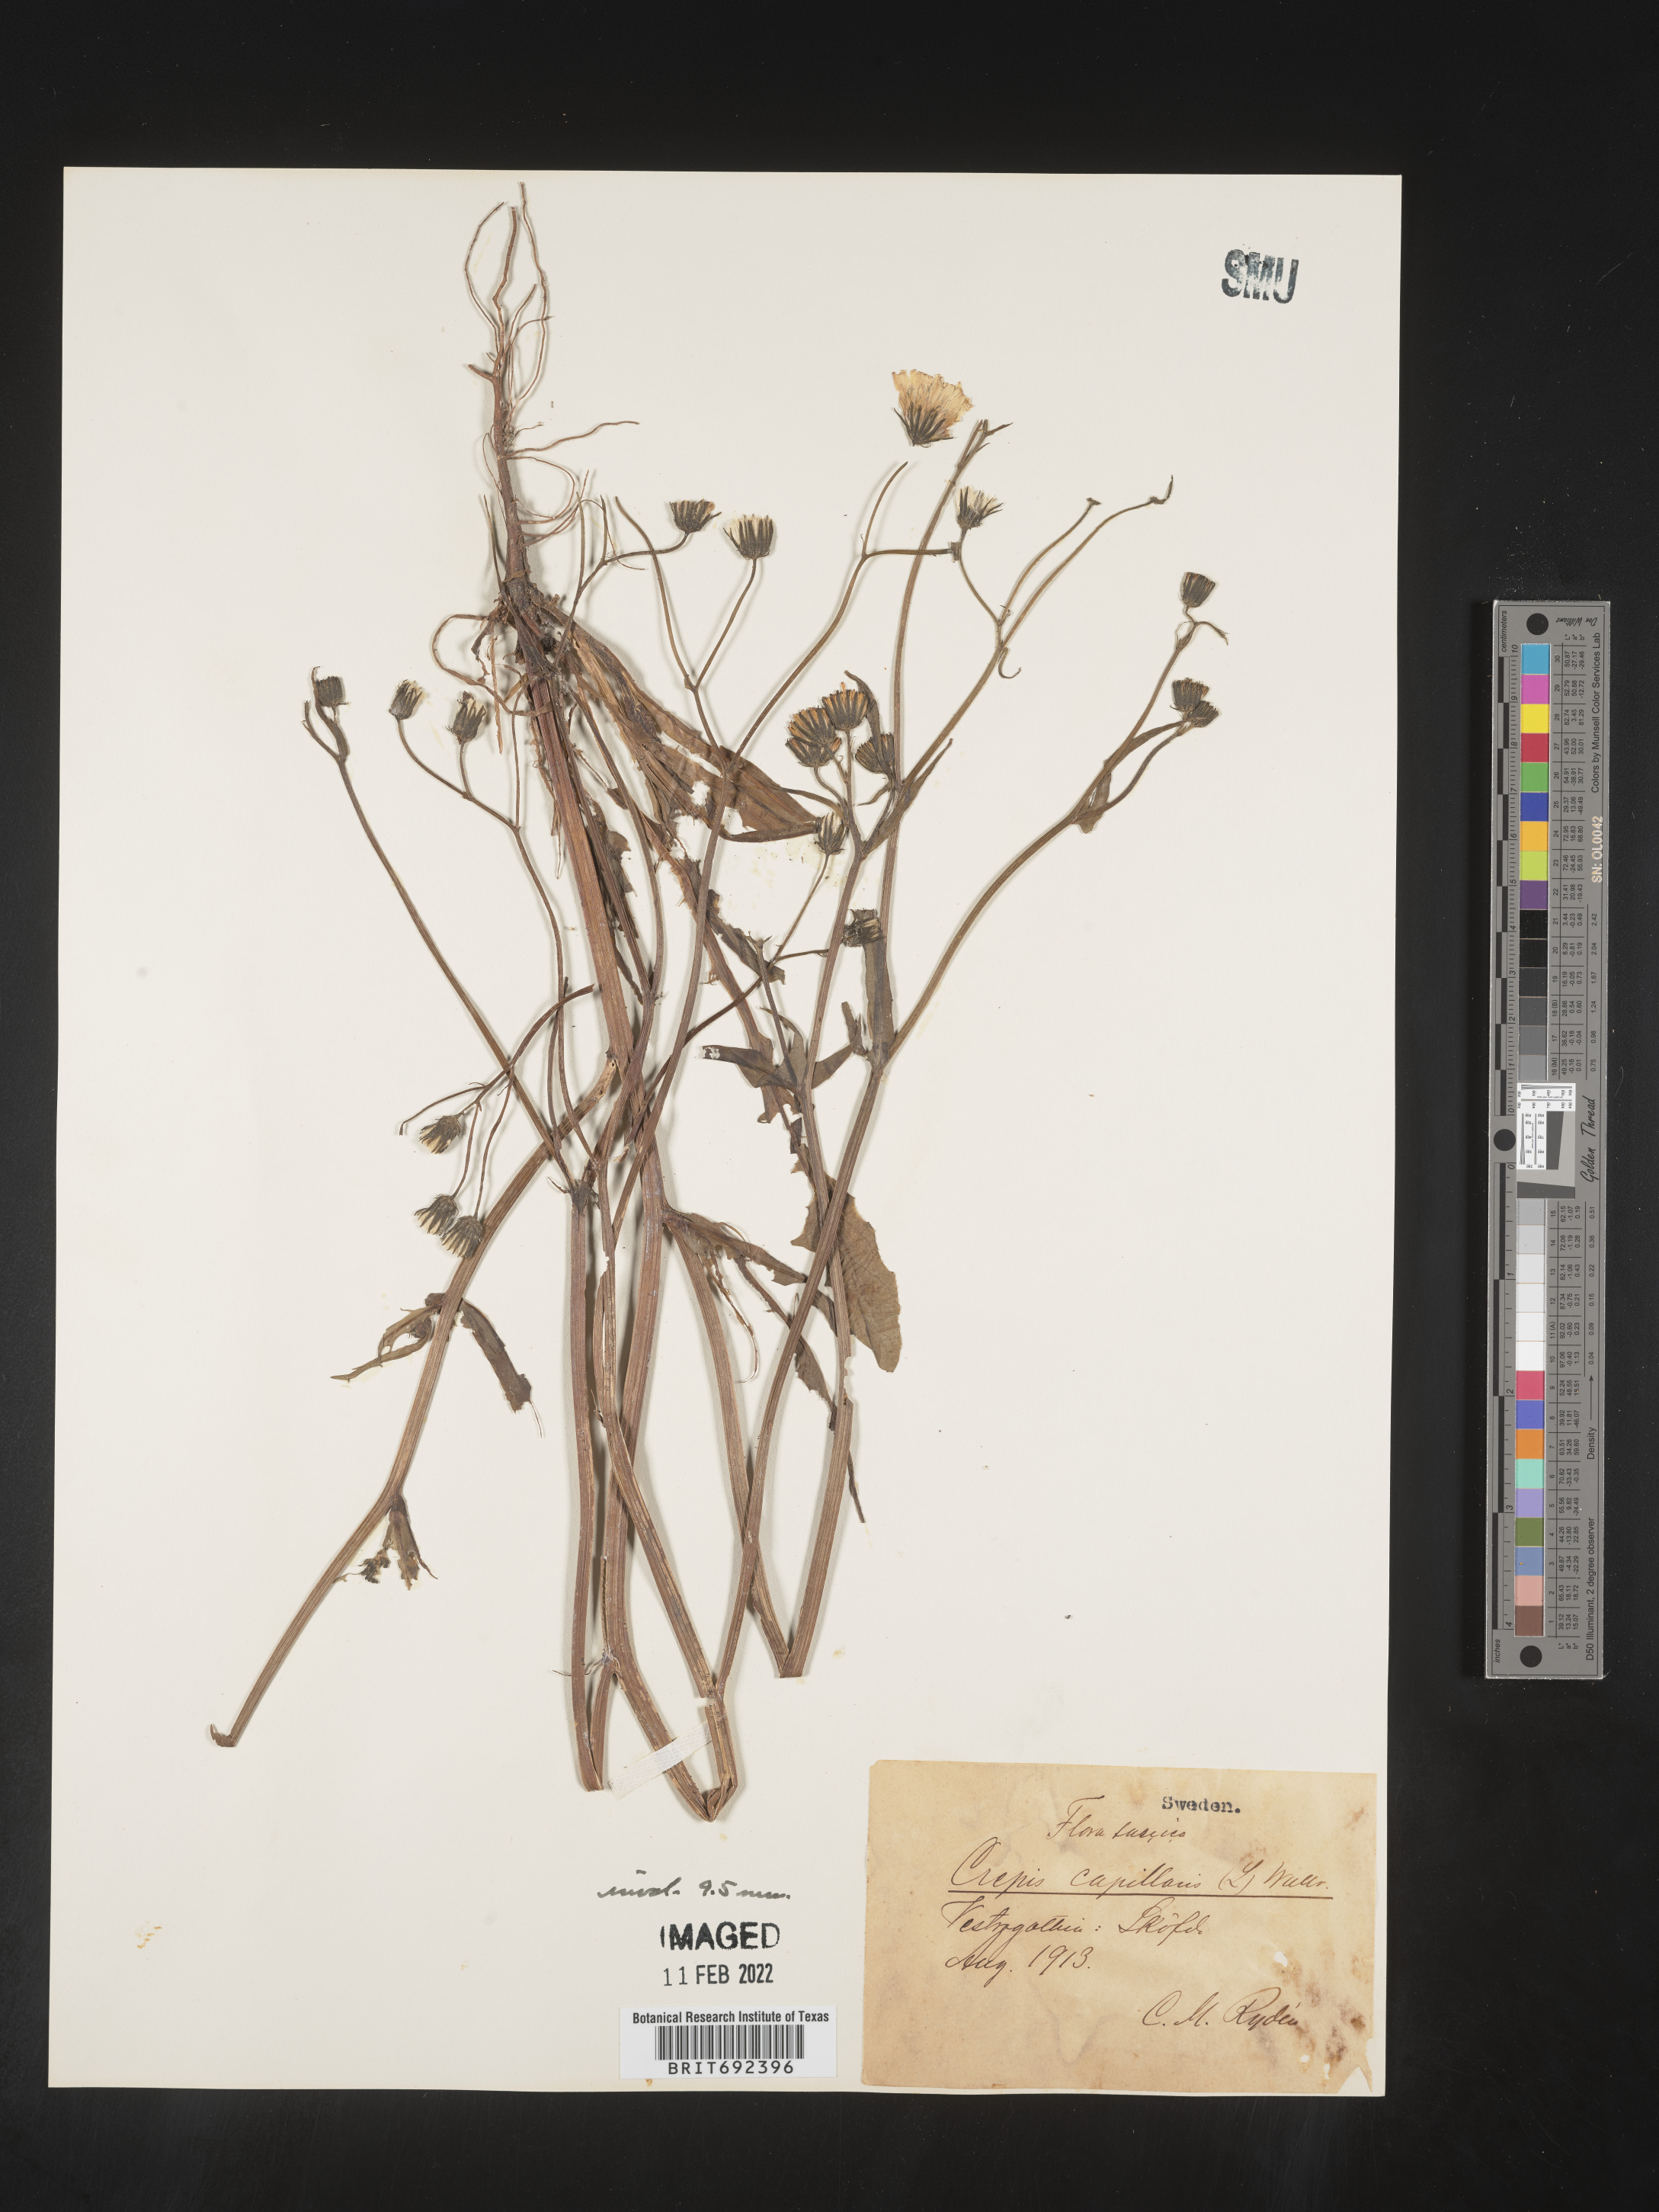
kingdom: Plantae
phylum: Tracheophyta
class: Magnoliopsida
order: Asterales
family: Asteraceae
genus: Crepis
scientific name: Crepis
